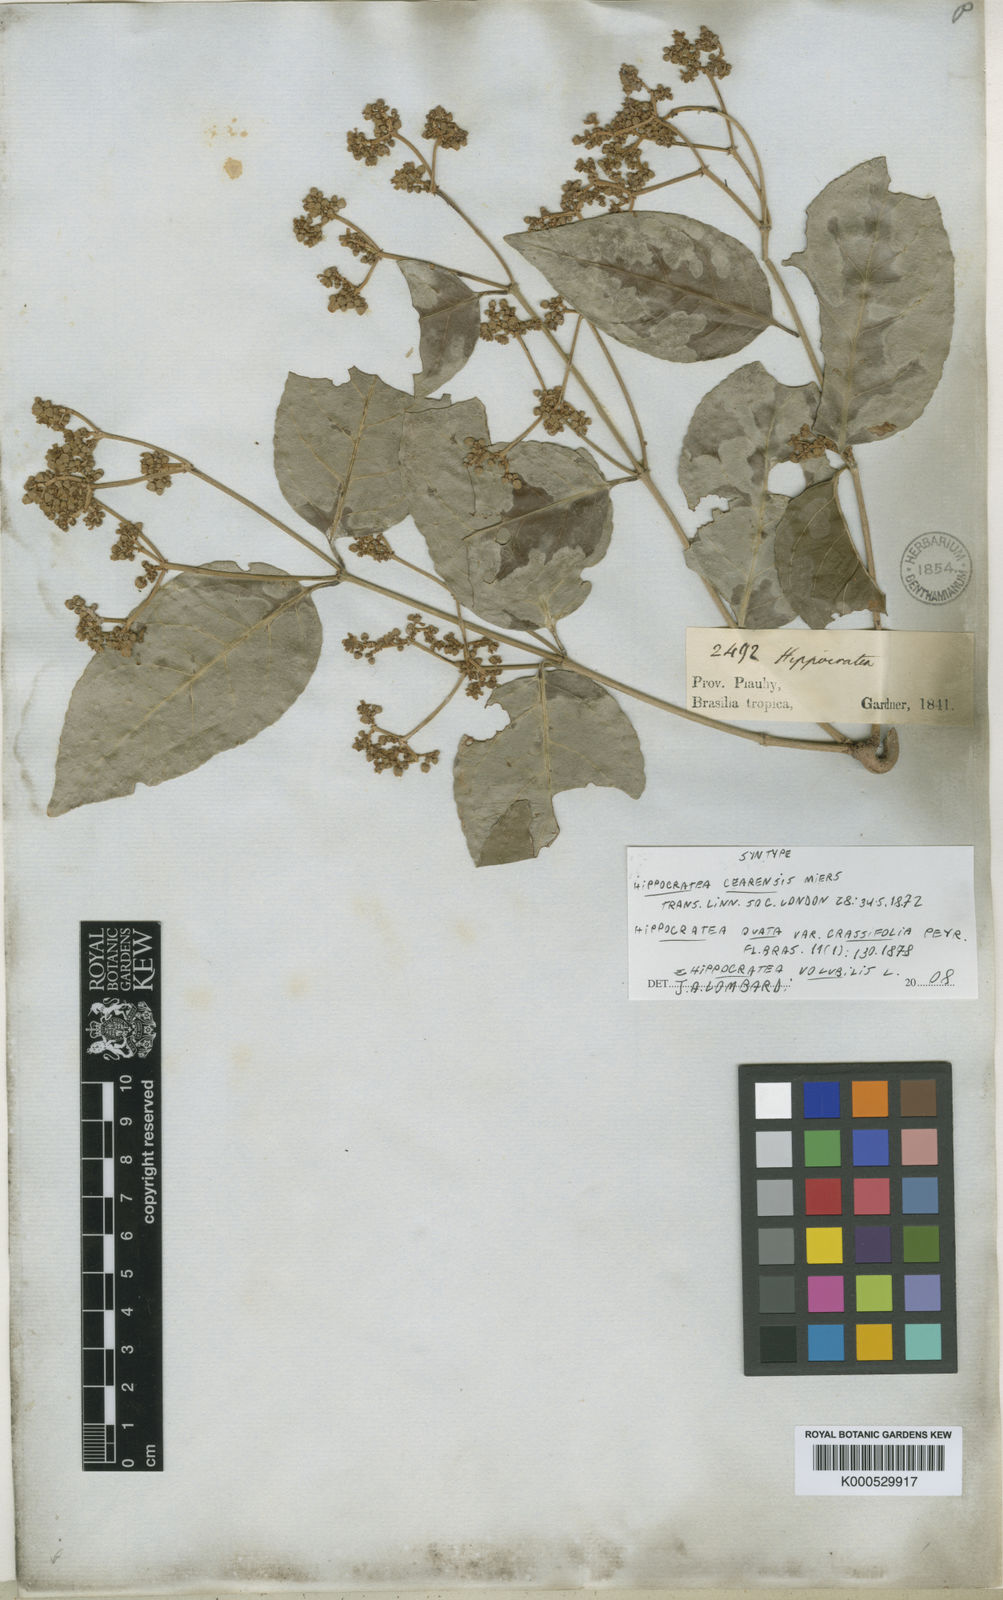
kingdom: Plantae
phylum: Tracheophyta
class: Magnoliopsida
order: Celastrales
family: Celastraceae
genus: Hippocratea
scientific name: Hippocratea volubilis
